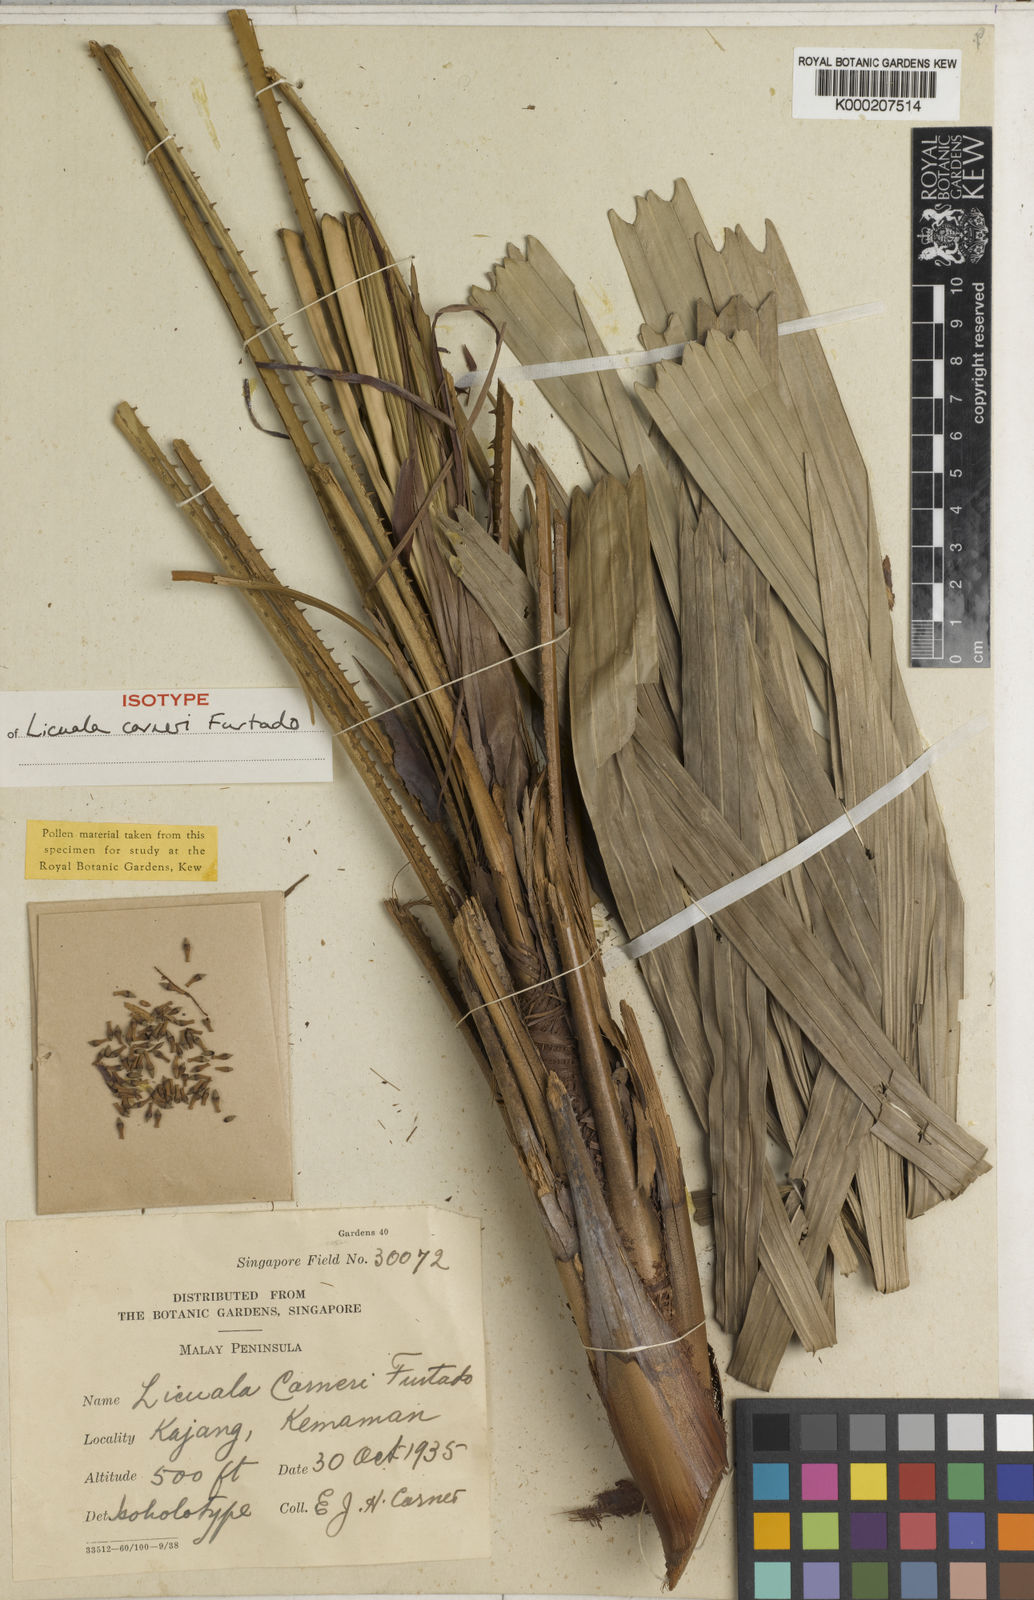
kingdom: Plantae
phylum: Tracheophyta
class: Liliopsida
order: Arecales
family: Arecaceae
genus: Licuala
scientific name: Licuala corneri
